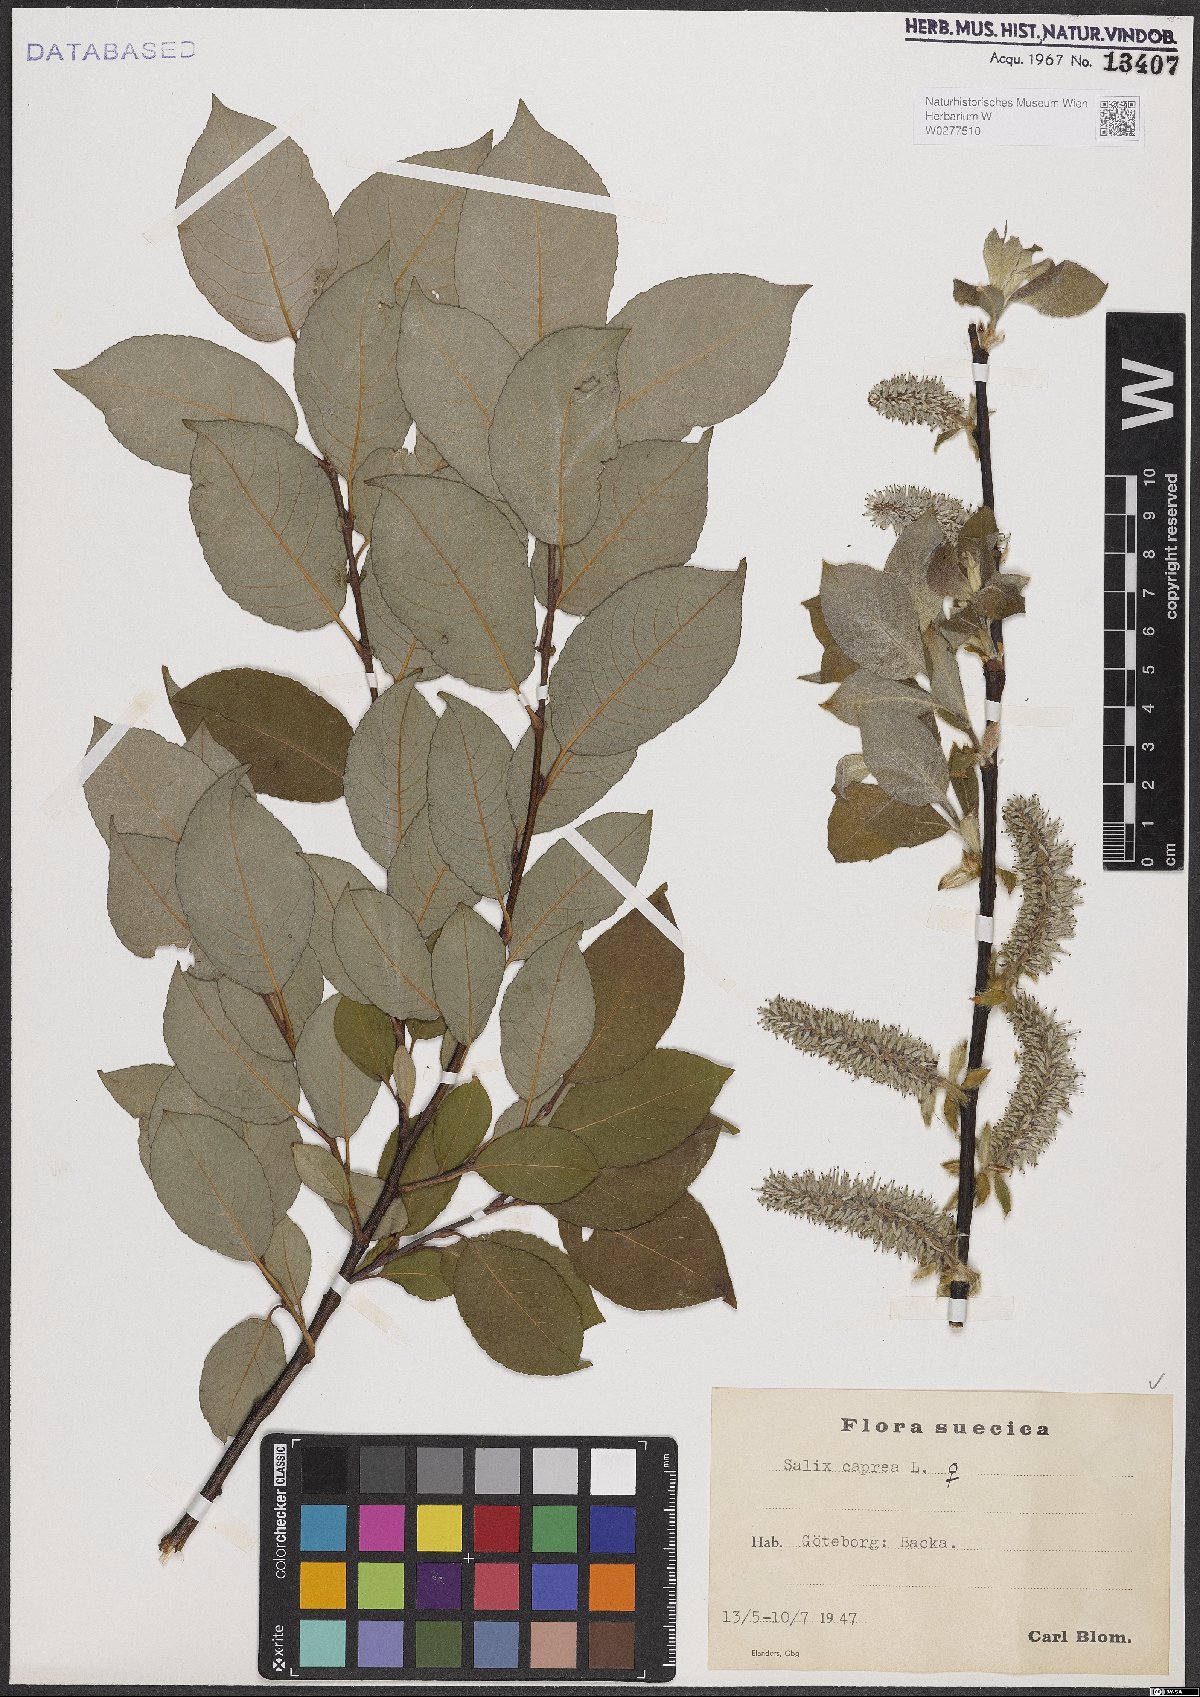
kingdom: Plantae
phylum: Tracheophyta
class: Magnoliopsida
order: Malpighiales
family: Salicaceae
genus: Salix
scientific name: Salix caprea
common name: Goat willow
